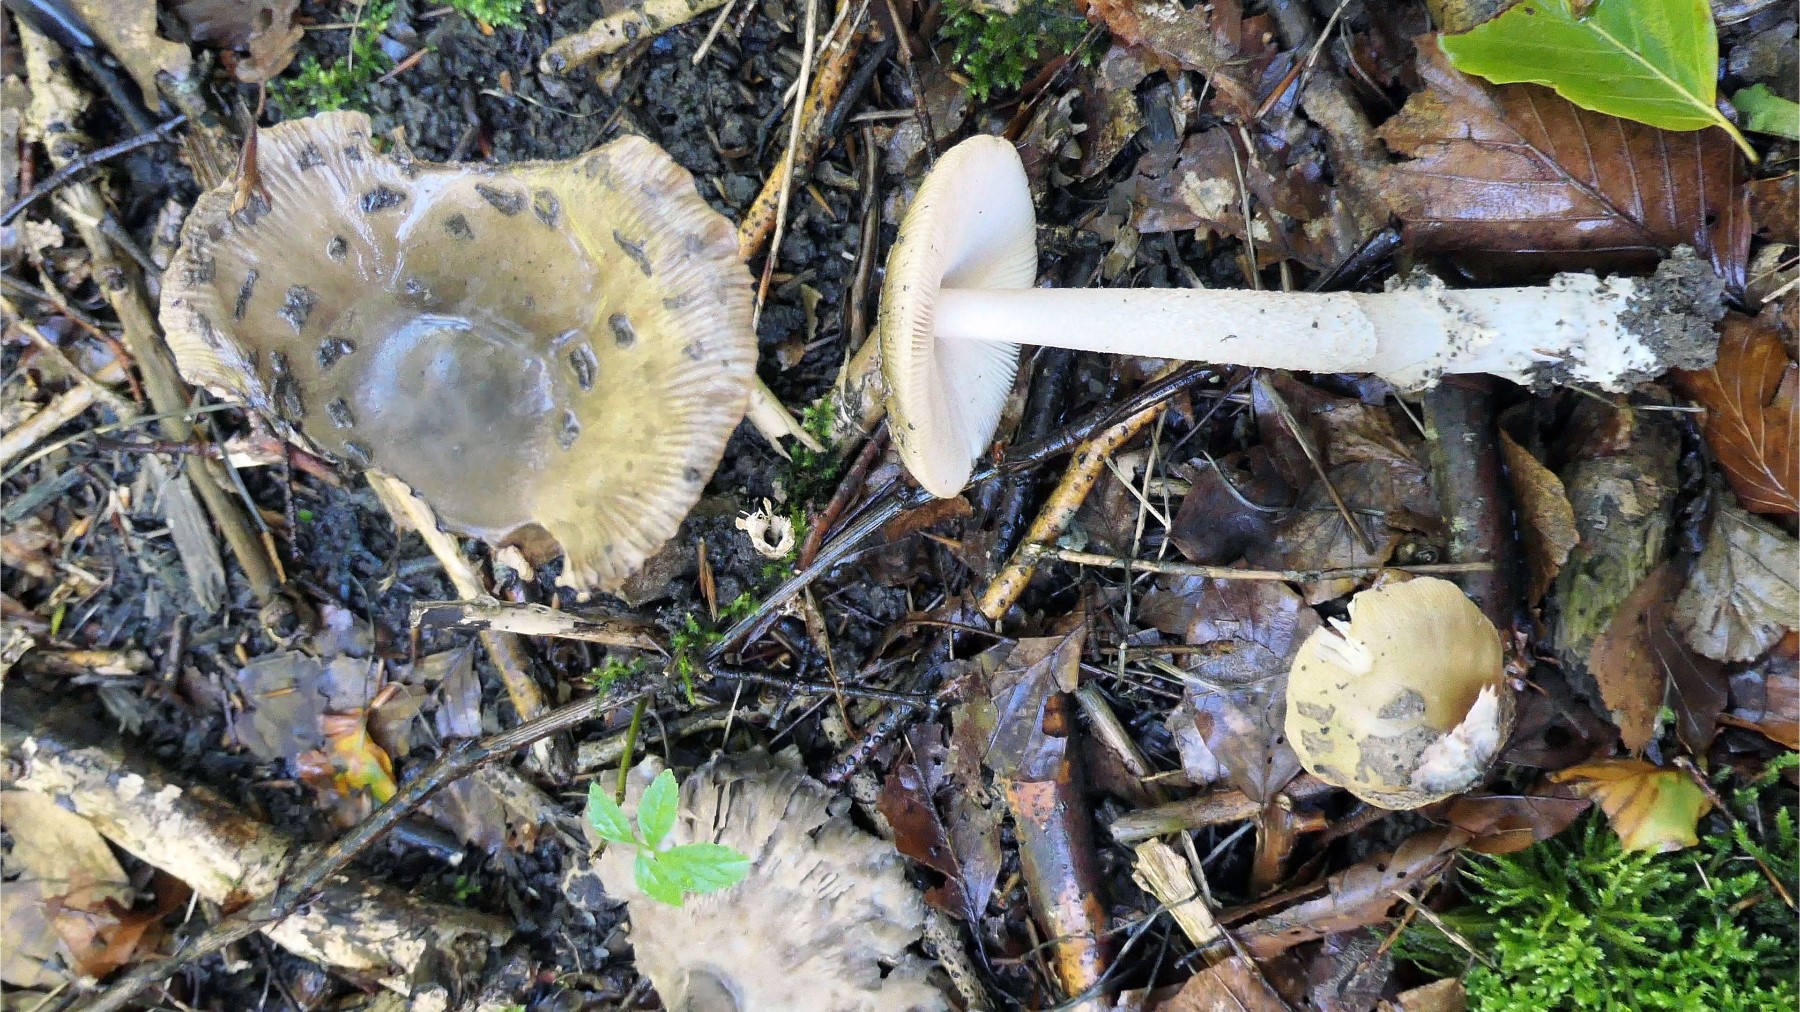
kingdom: Fungi
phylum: Basidiomycota
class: Agaricomycetes
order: Agaricales
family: Amanitaceae
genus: Amanita
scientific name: Amanita ceciliae
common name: stor kam-fluesvamp
